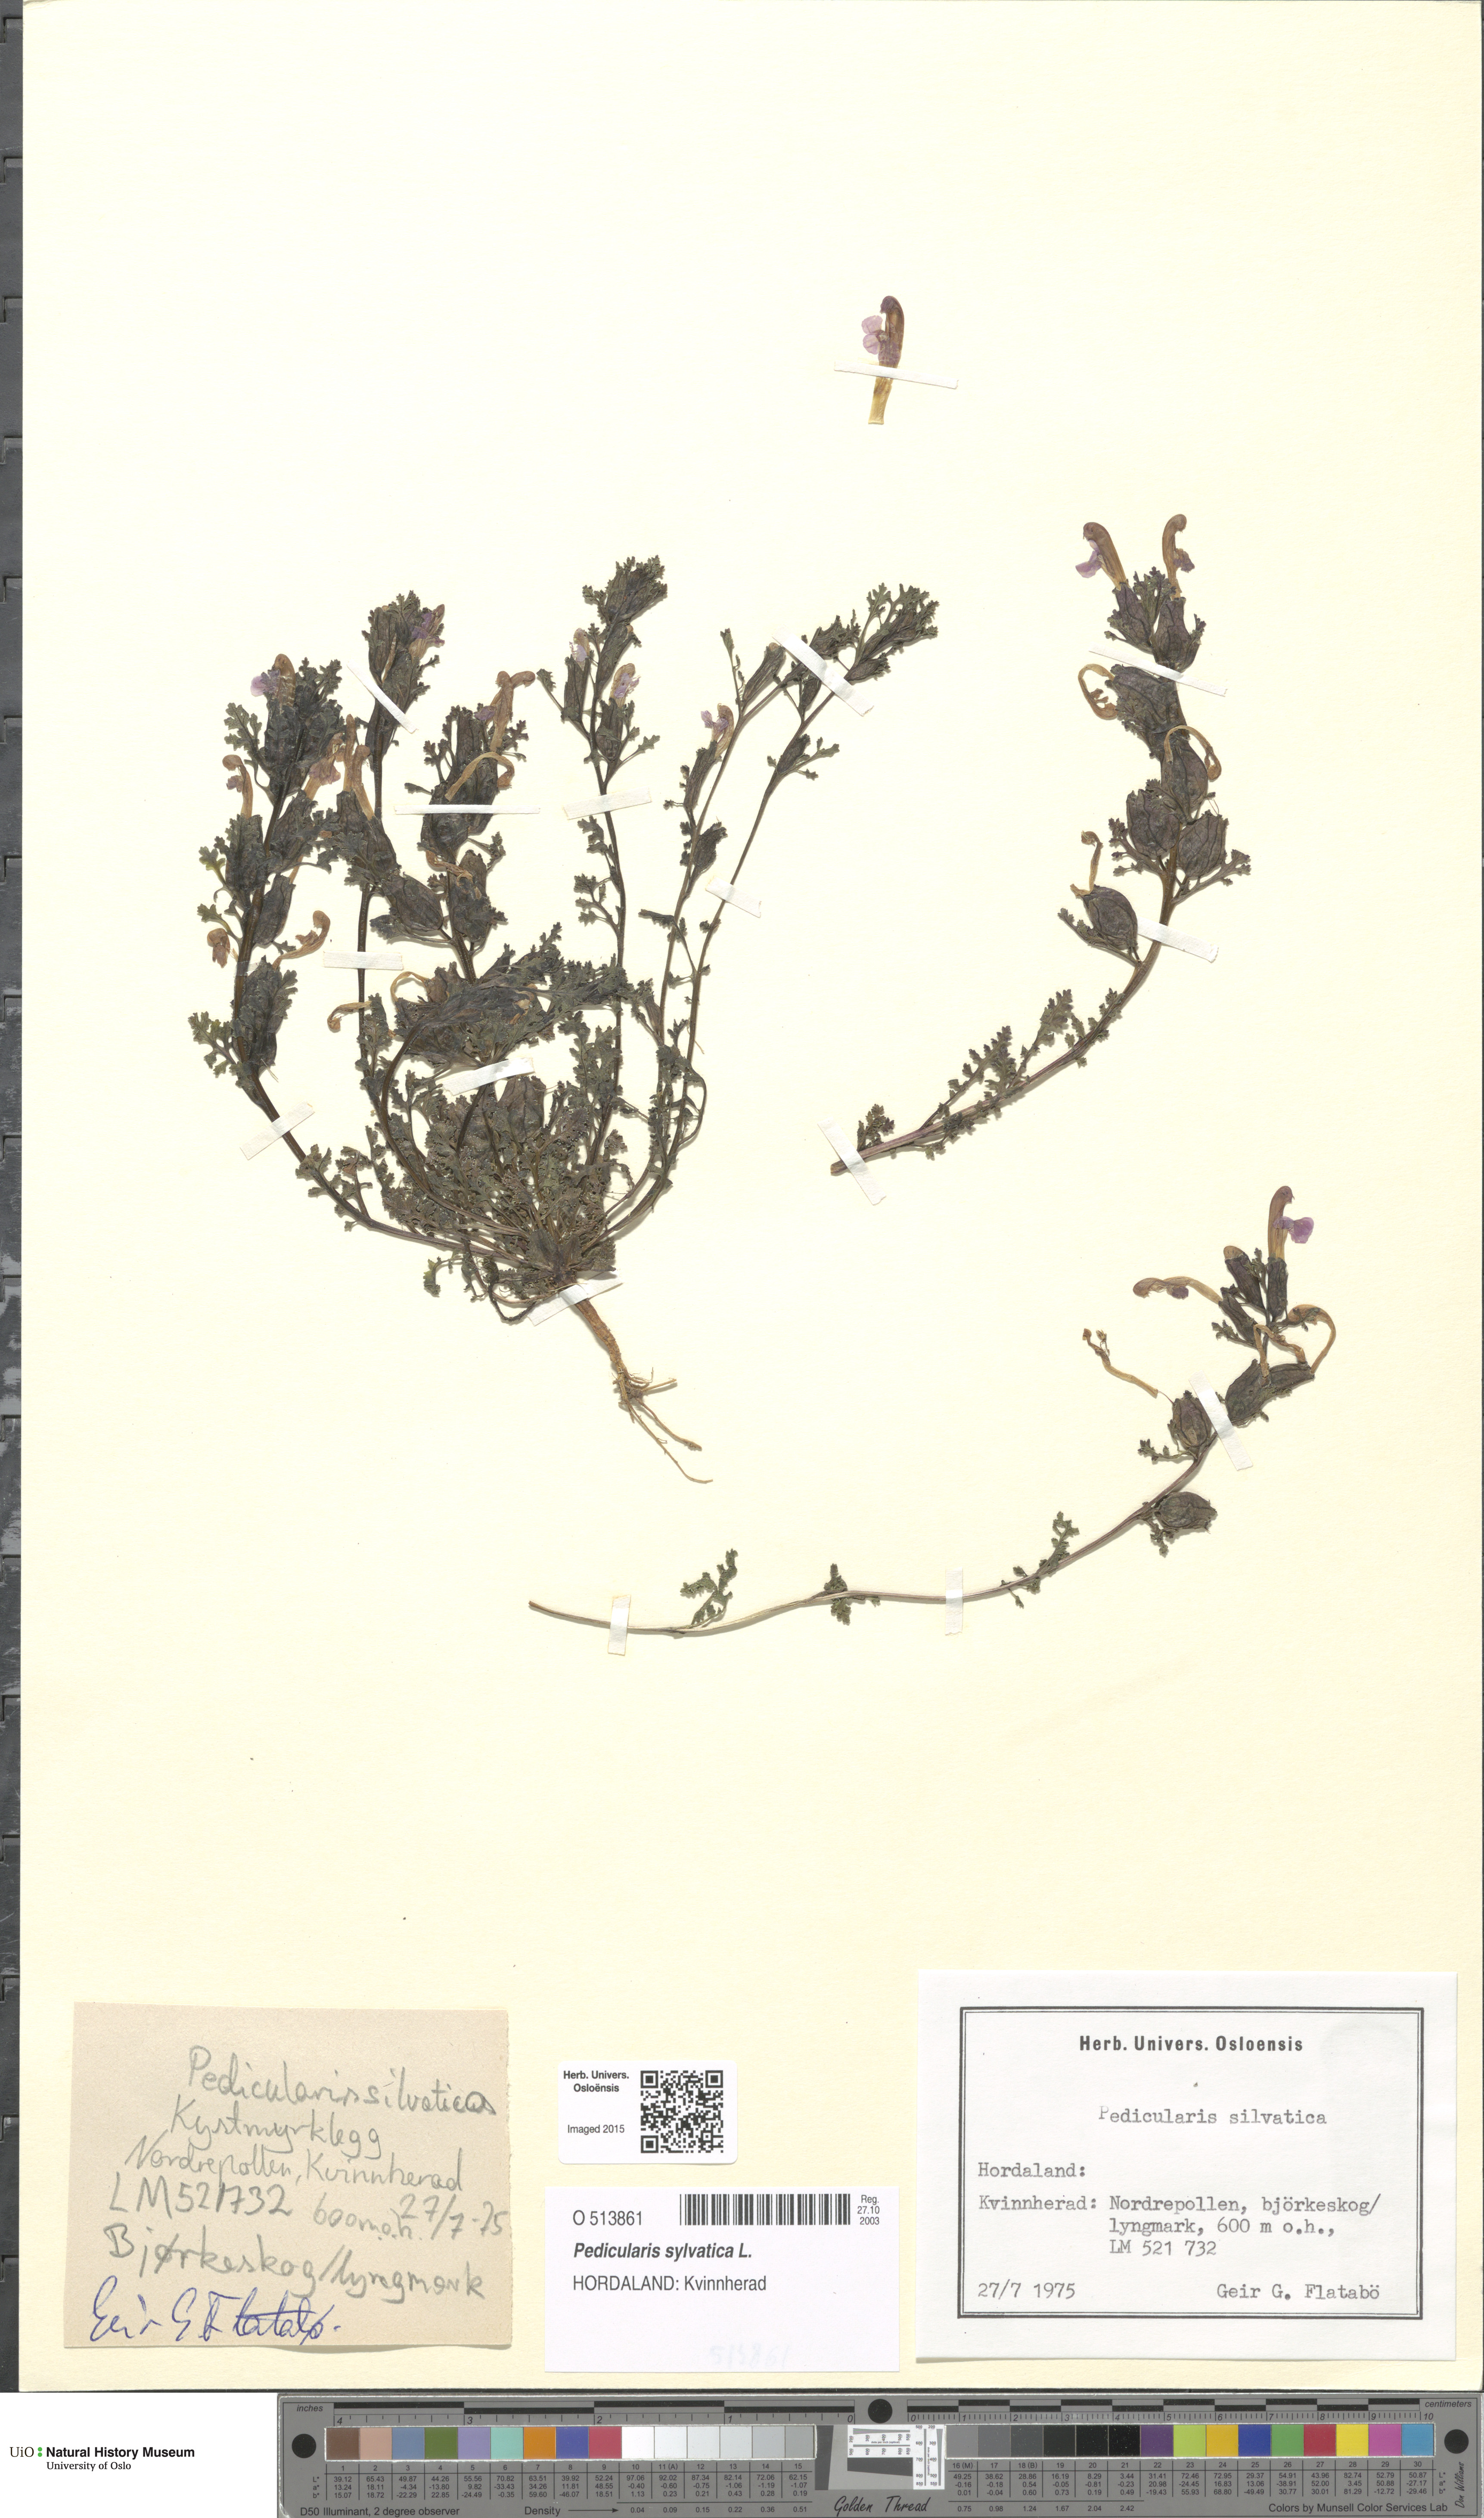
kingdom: Plantae
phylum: Tracheophyta
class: Magnoliopsida
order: Lamiales
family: Orobanchaceae
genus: Pedicularis
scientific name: Pedicularis sylvatica
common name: Lousewort
